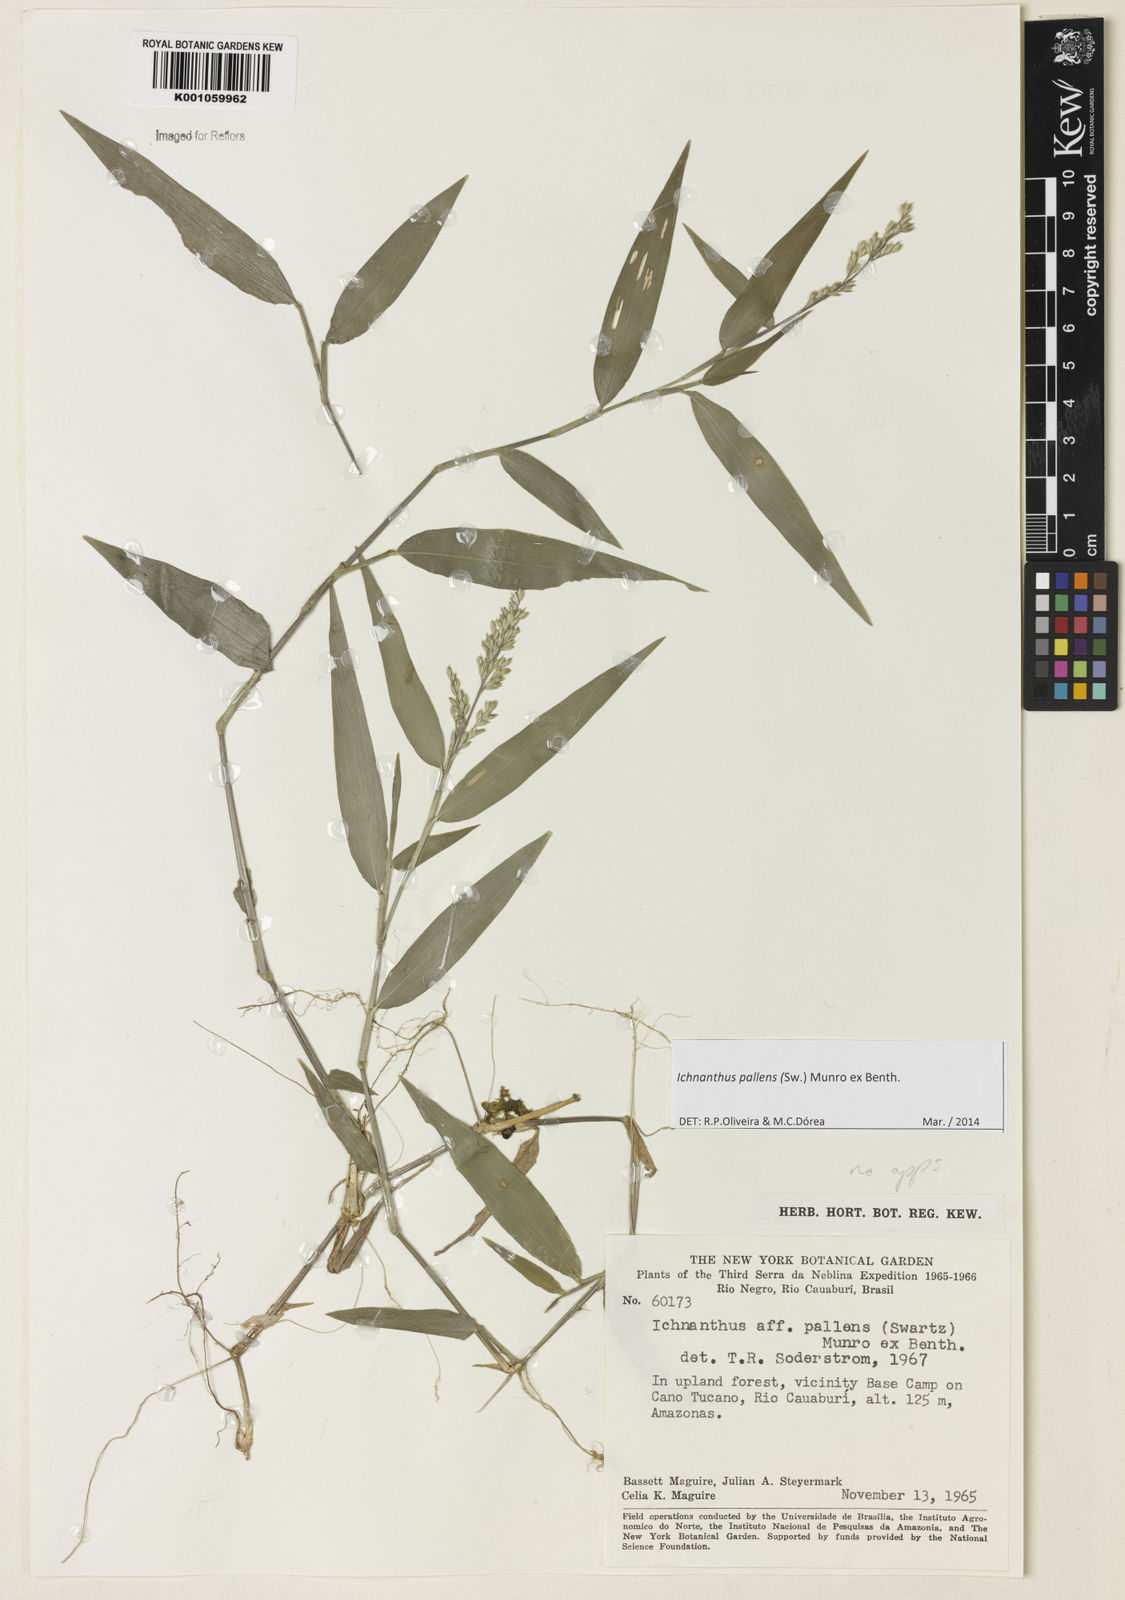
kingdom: Plantae
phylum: Tracheophyta
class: Liliopsida
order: Poales
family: Poaceae
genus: Ichnanthus
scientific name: Ichnanthus pallens
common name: Water grass
